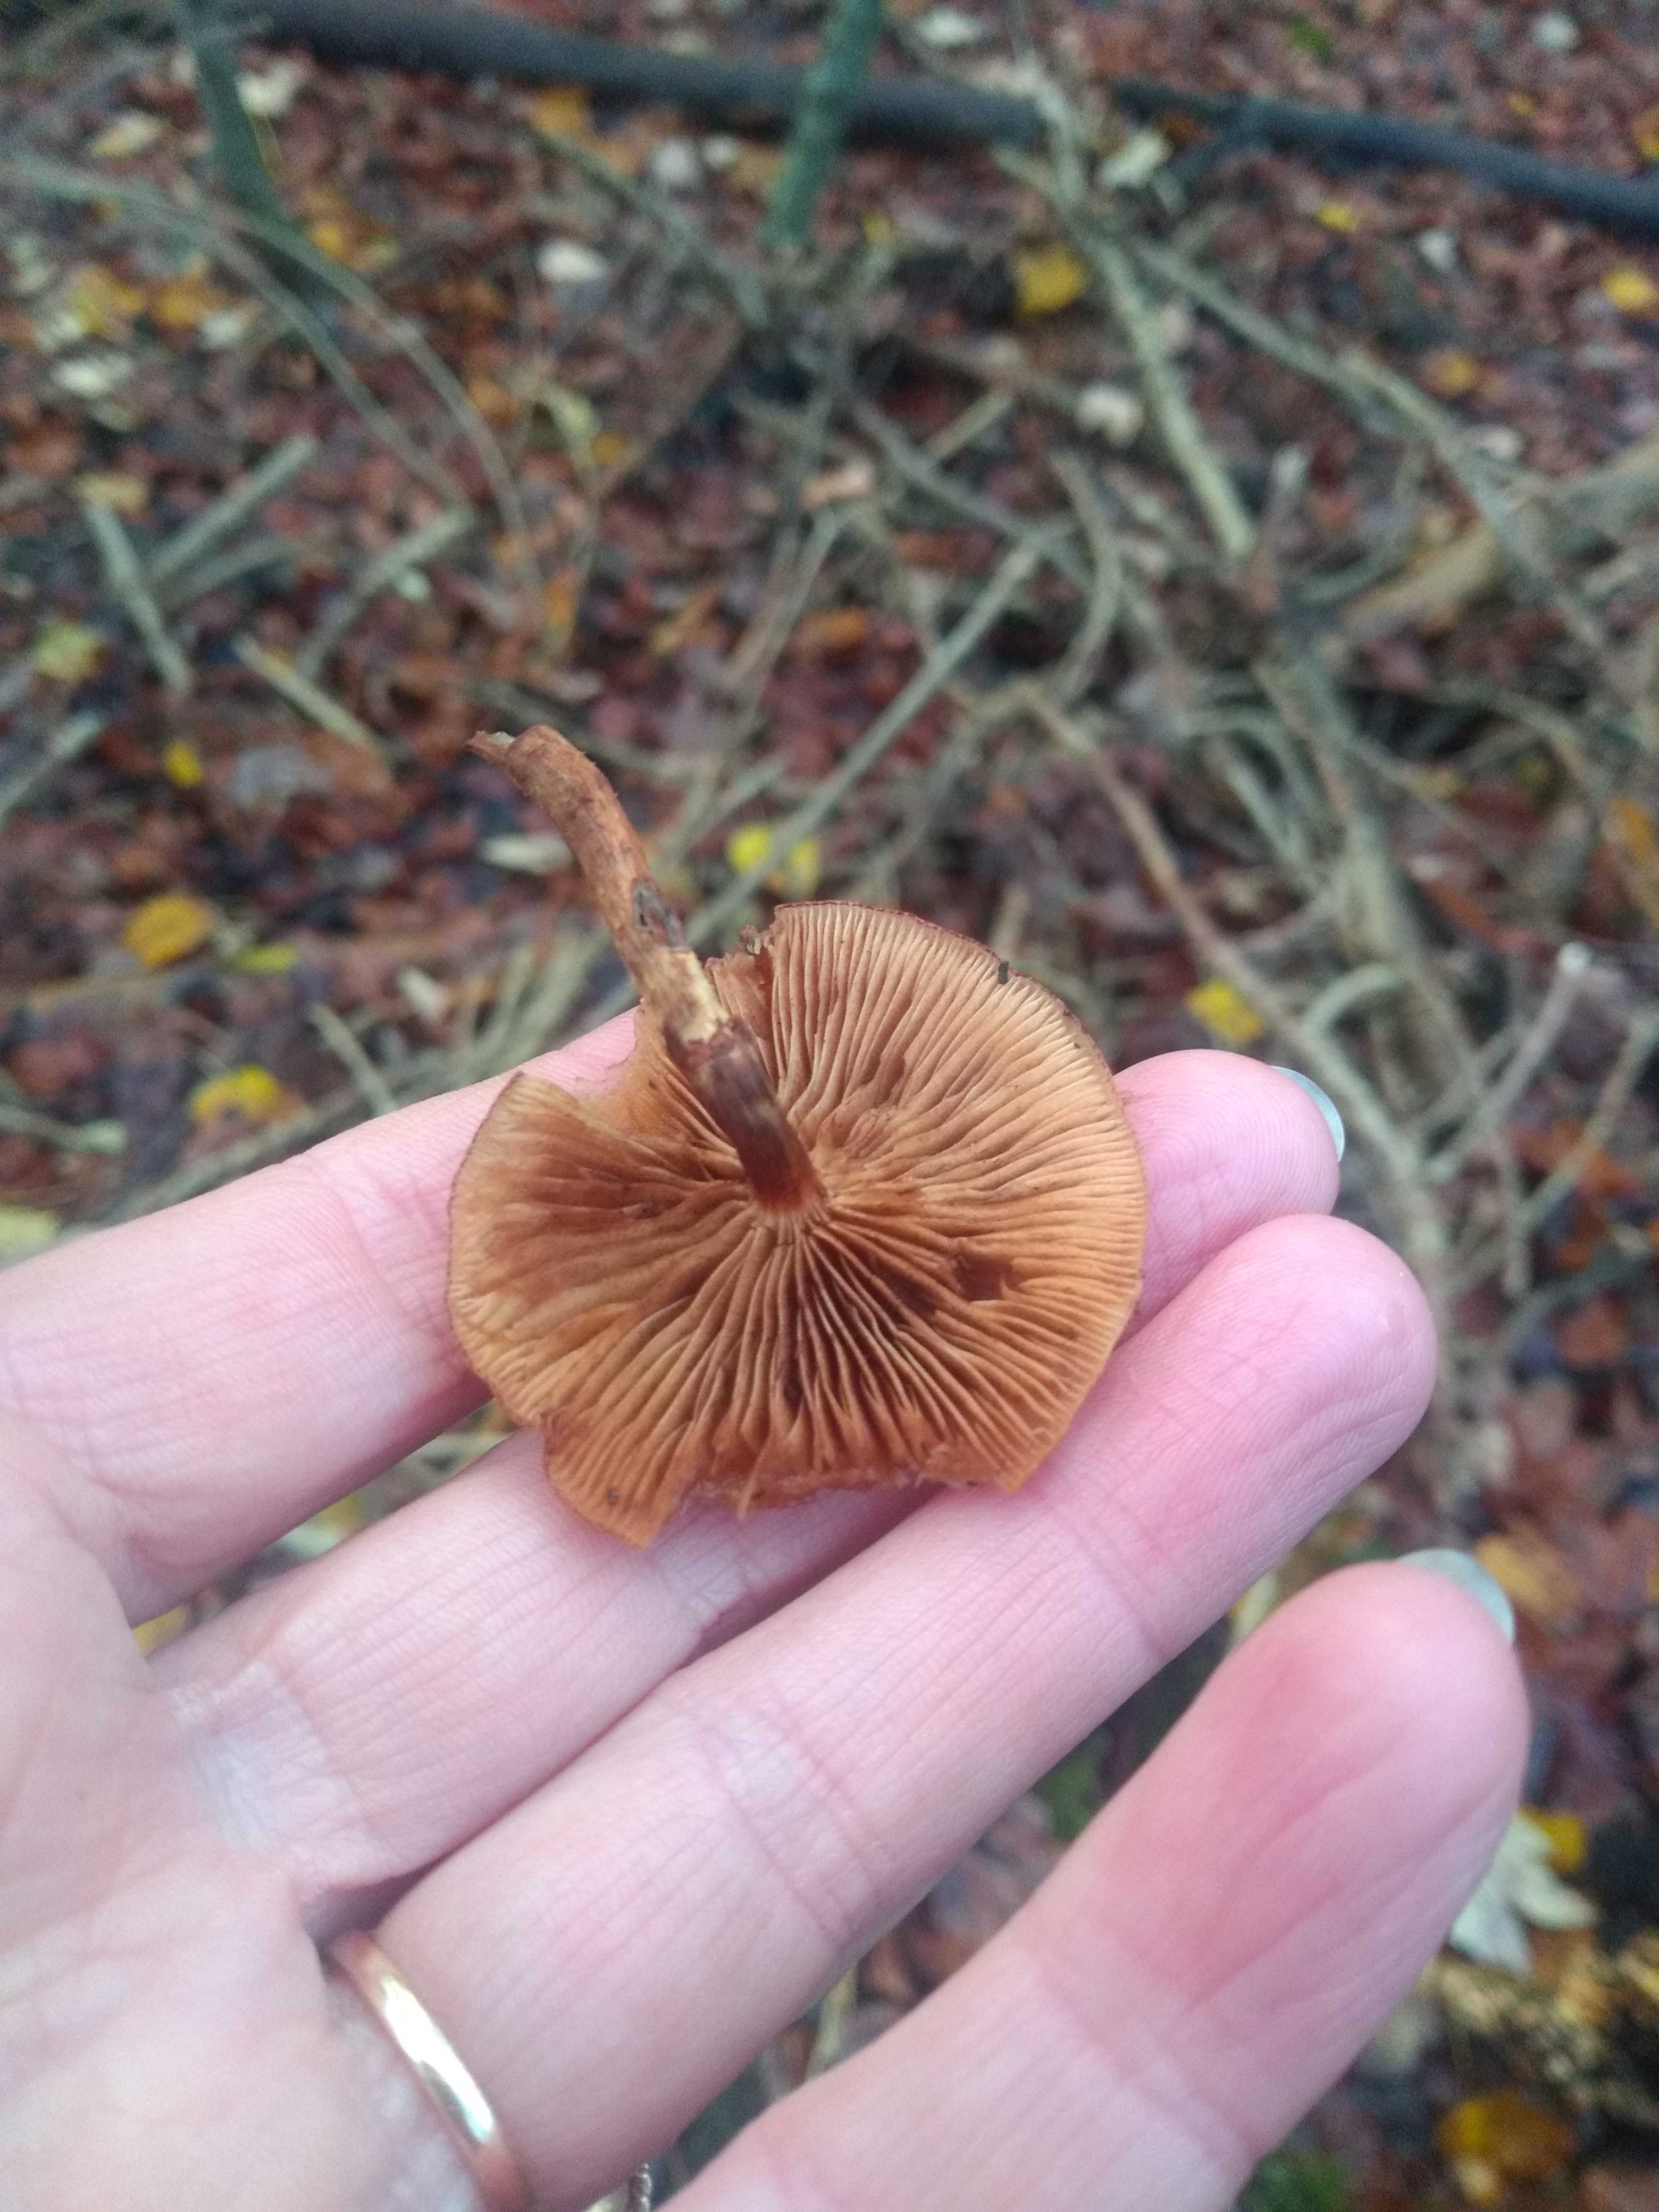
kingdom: Fungi
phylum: Basidiomycota
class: Agaricomycetes
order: Agaricales
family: Strophariaceae
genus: Kuehneromyces
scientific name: Kuehneromyces mutabilis
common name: foranderlig skælhat
